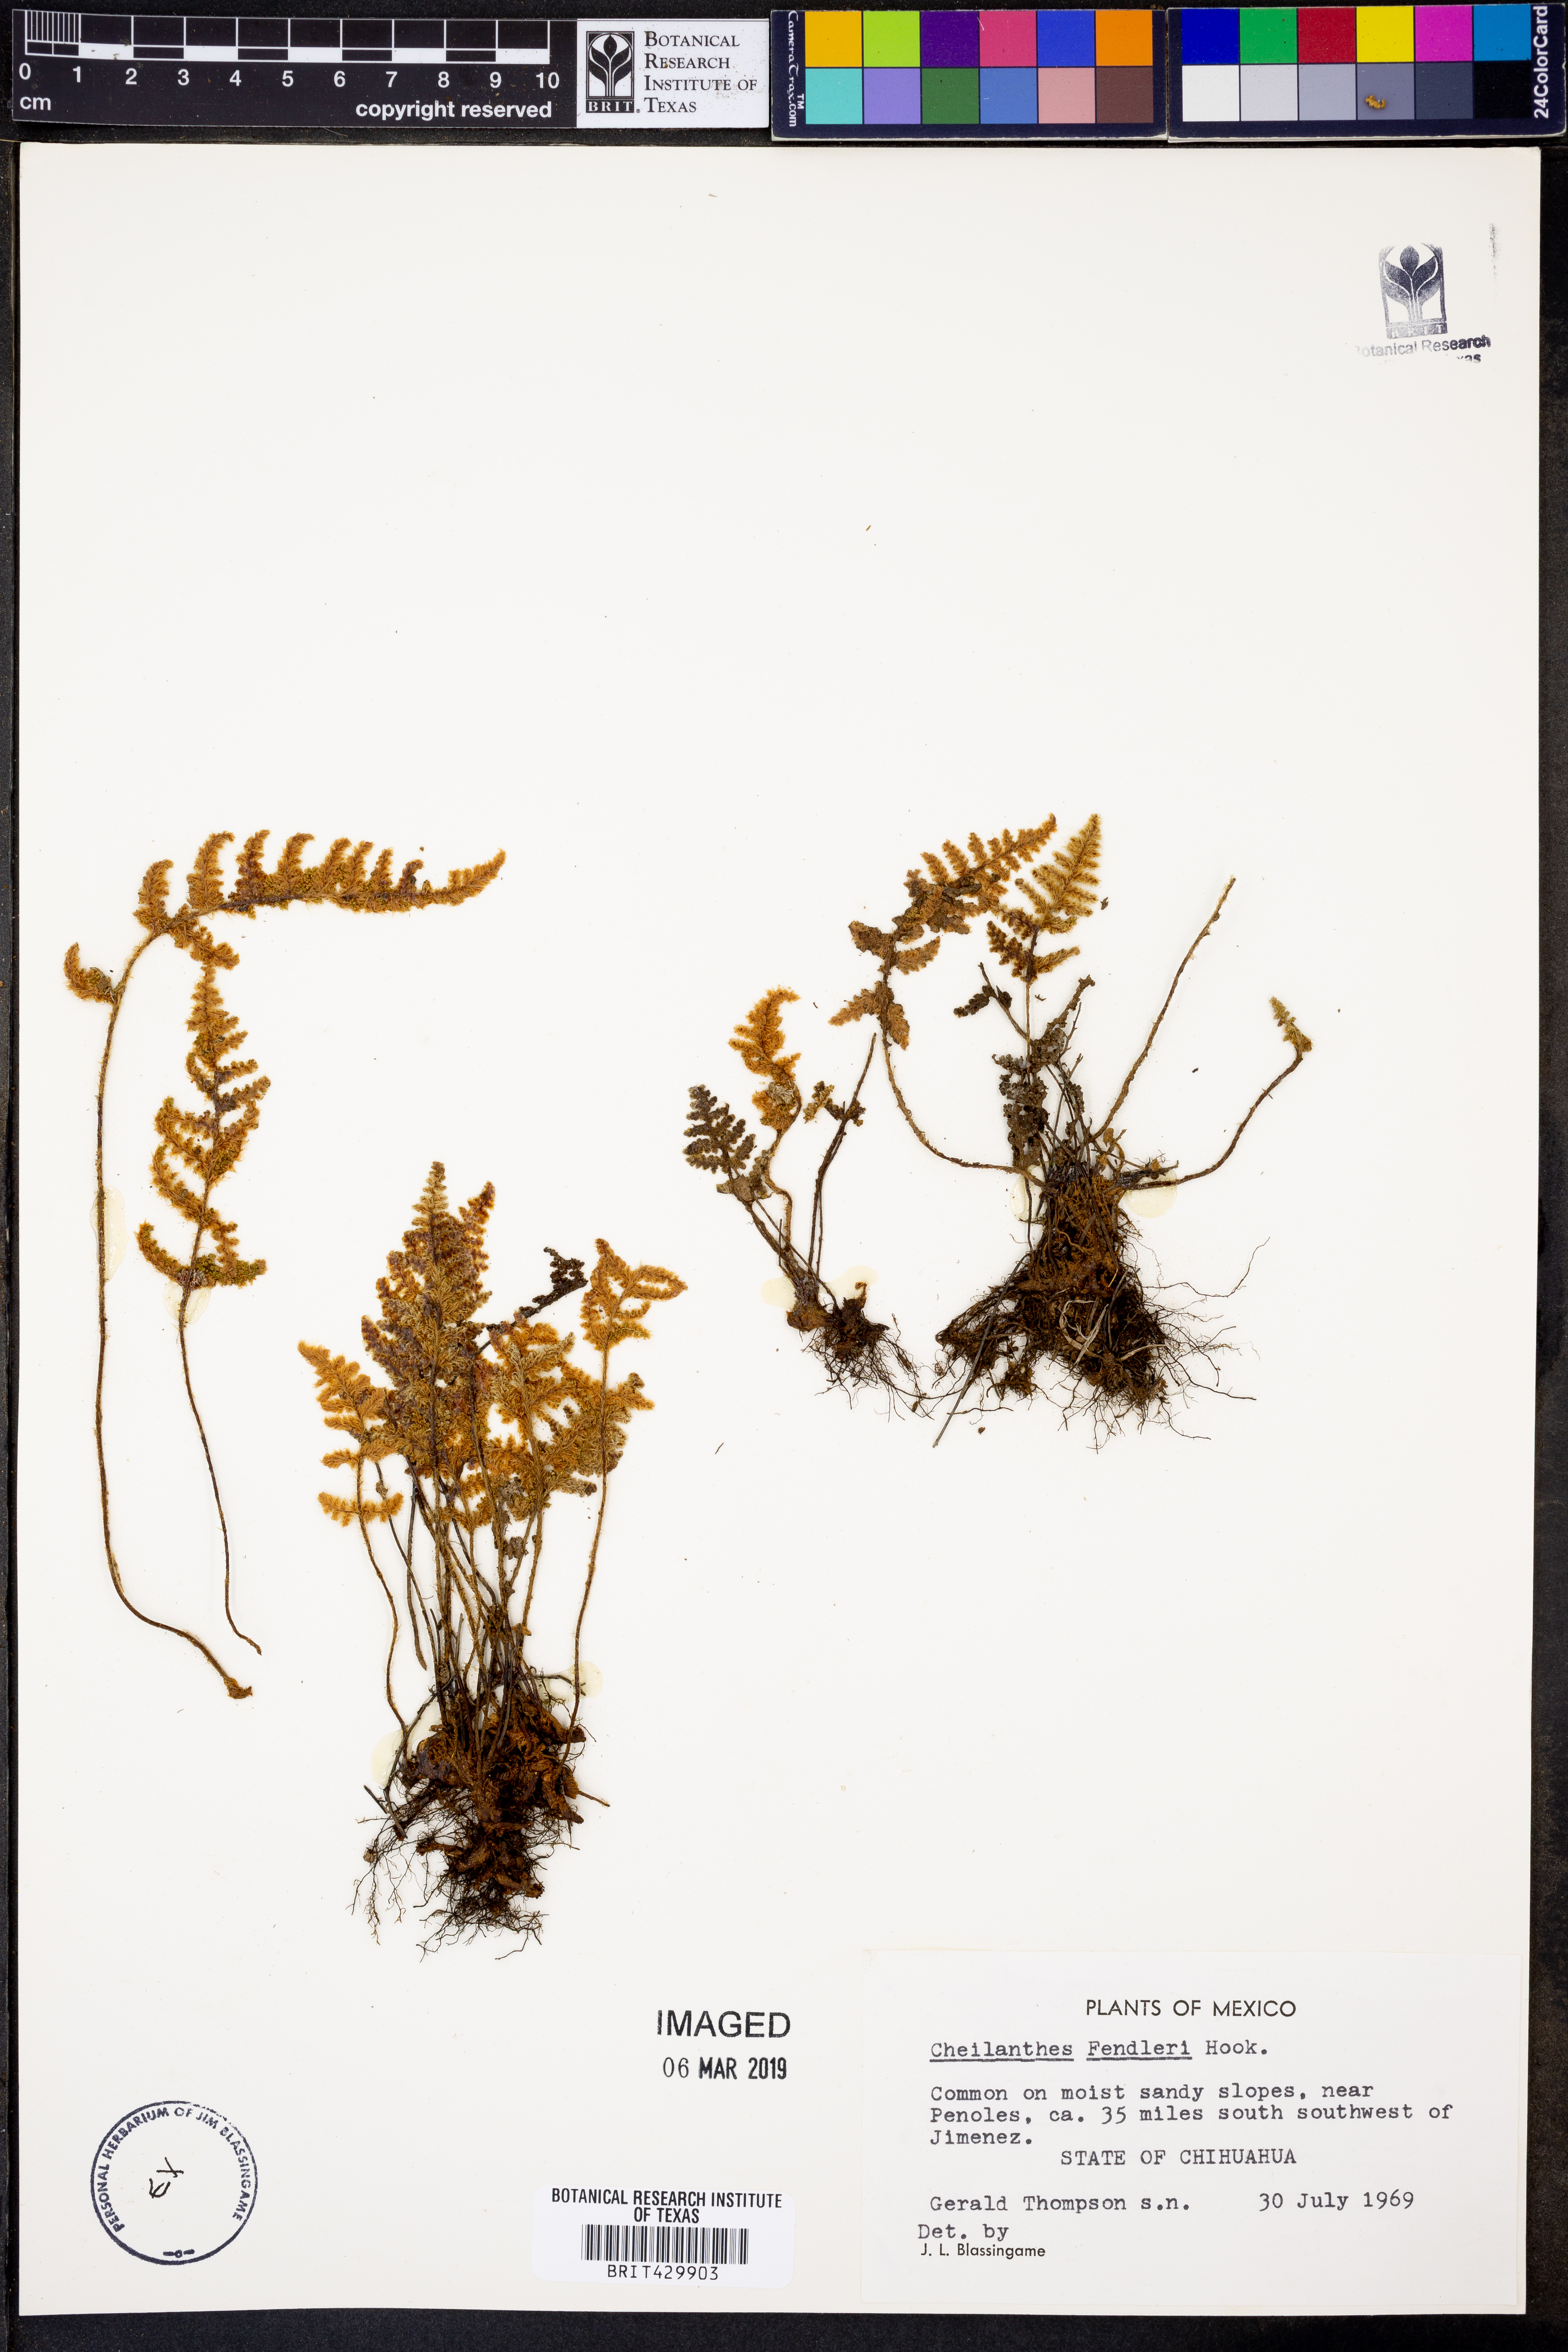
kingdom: Plantae
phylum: Tracheophyta
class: Polypodiopsida
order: Polypodiales
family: Pteridaceae
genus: Myriopteris
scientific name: Myriopteris fendleri
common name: Fendler's lip fern
